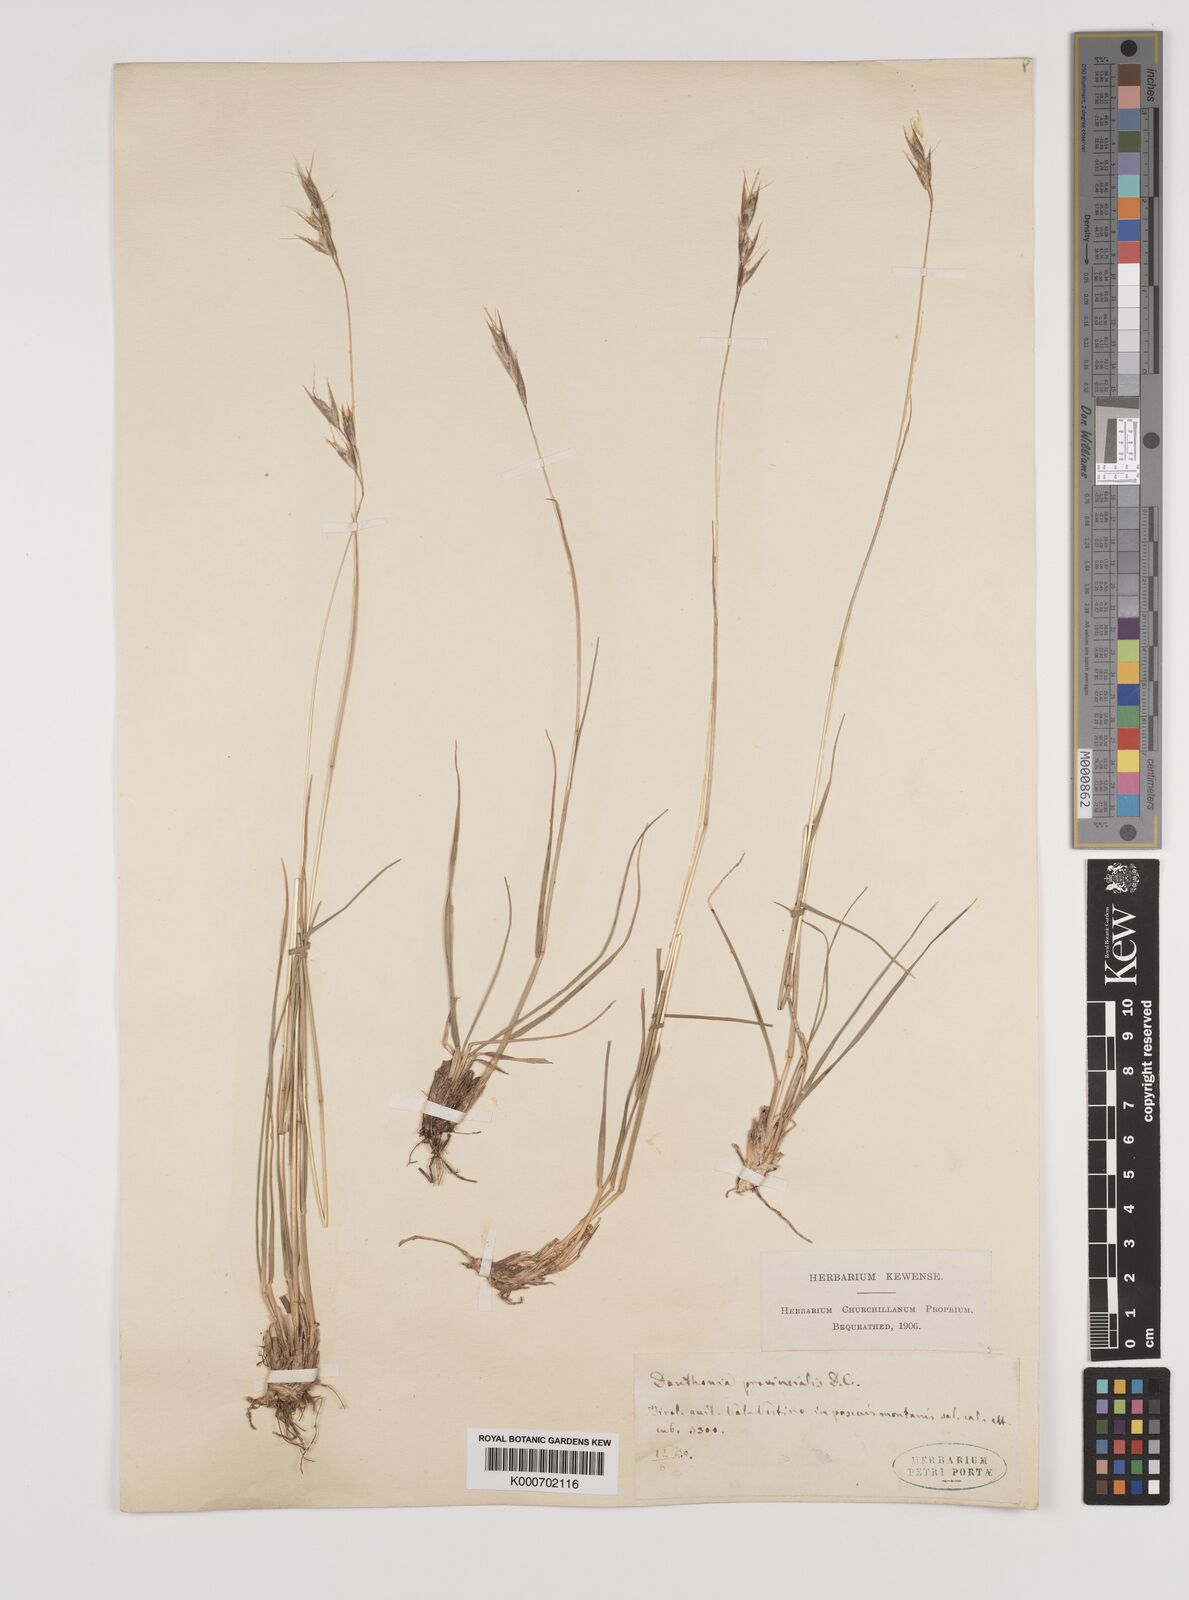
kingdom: Plantae
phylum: Tracheophyta
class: Liliopsida
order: Poales
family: Poaceae
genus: Danthonia
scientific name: Danthonia alpina
